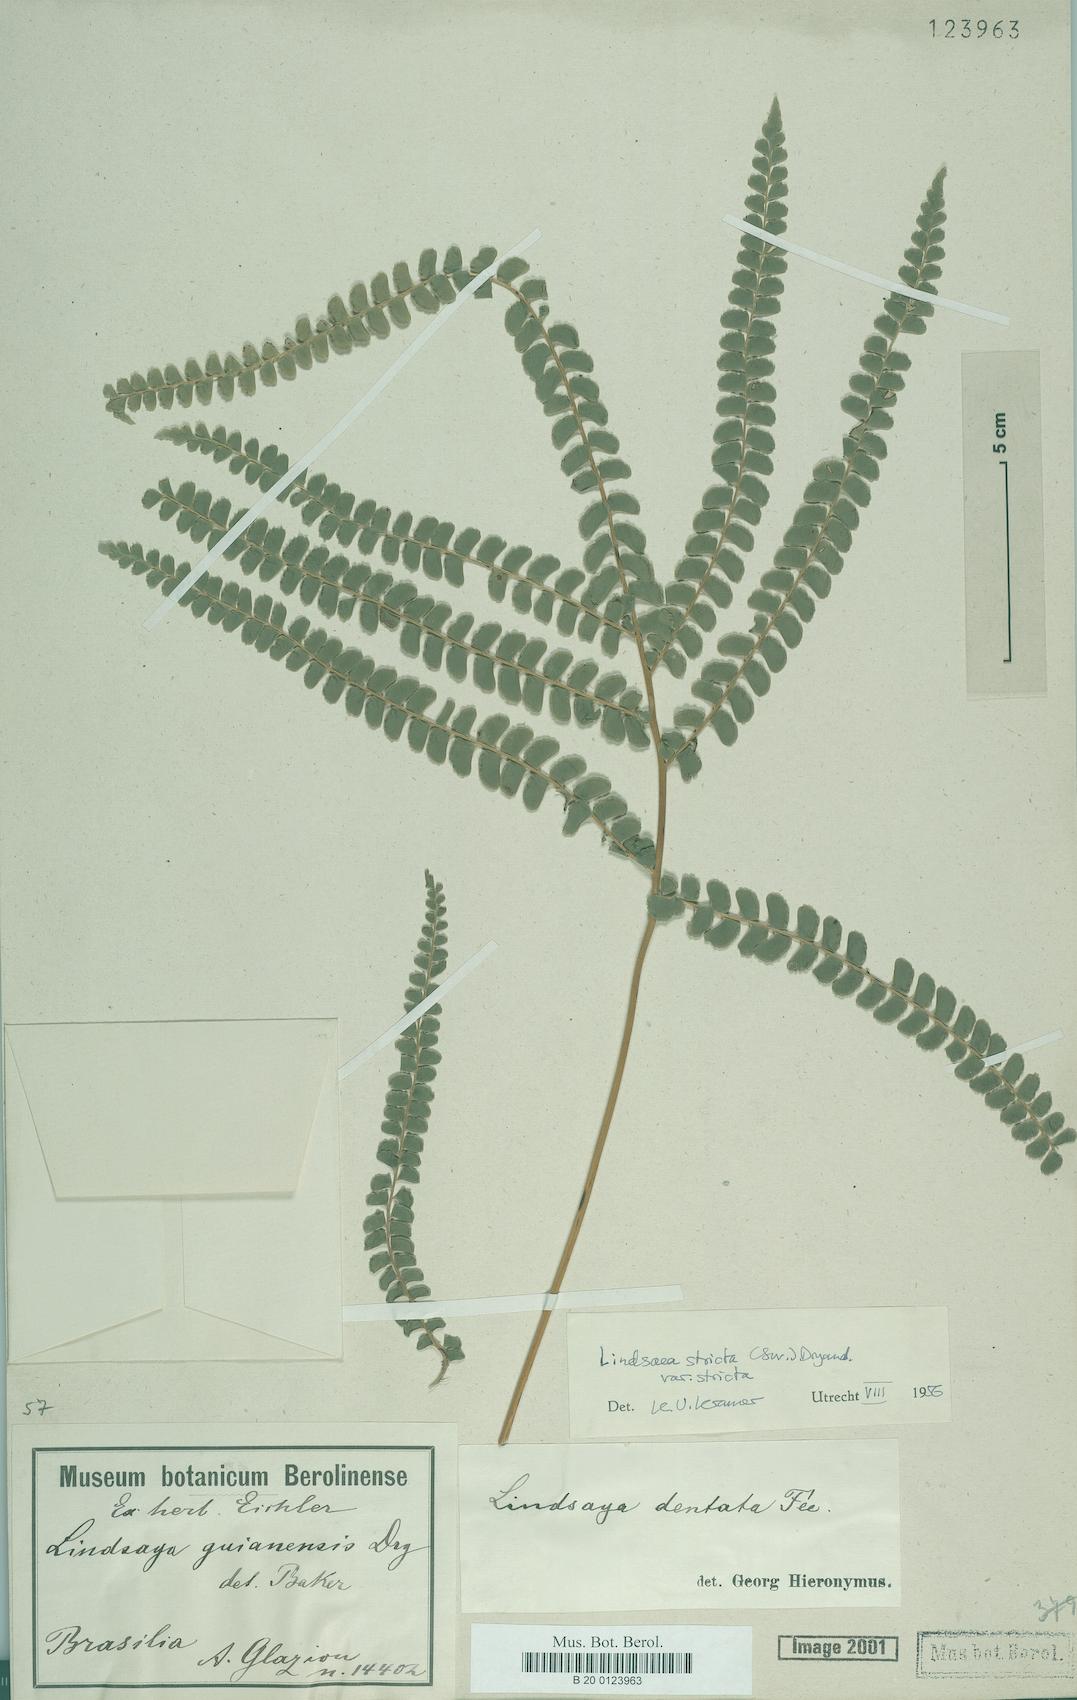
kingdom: Plantae
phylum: Tracheophyta
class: Polypodiopsida
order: Polypodiales
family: Lindsaeaceae
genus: Lindsaea
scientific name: Lindsaea stricta
